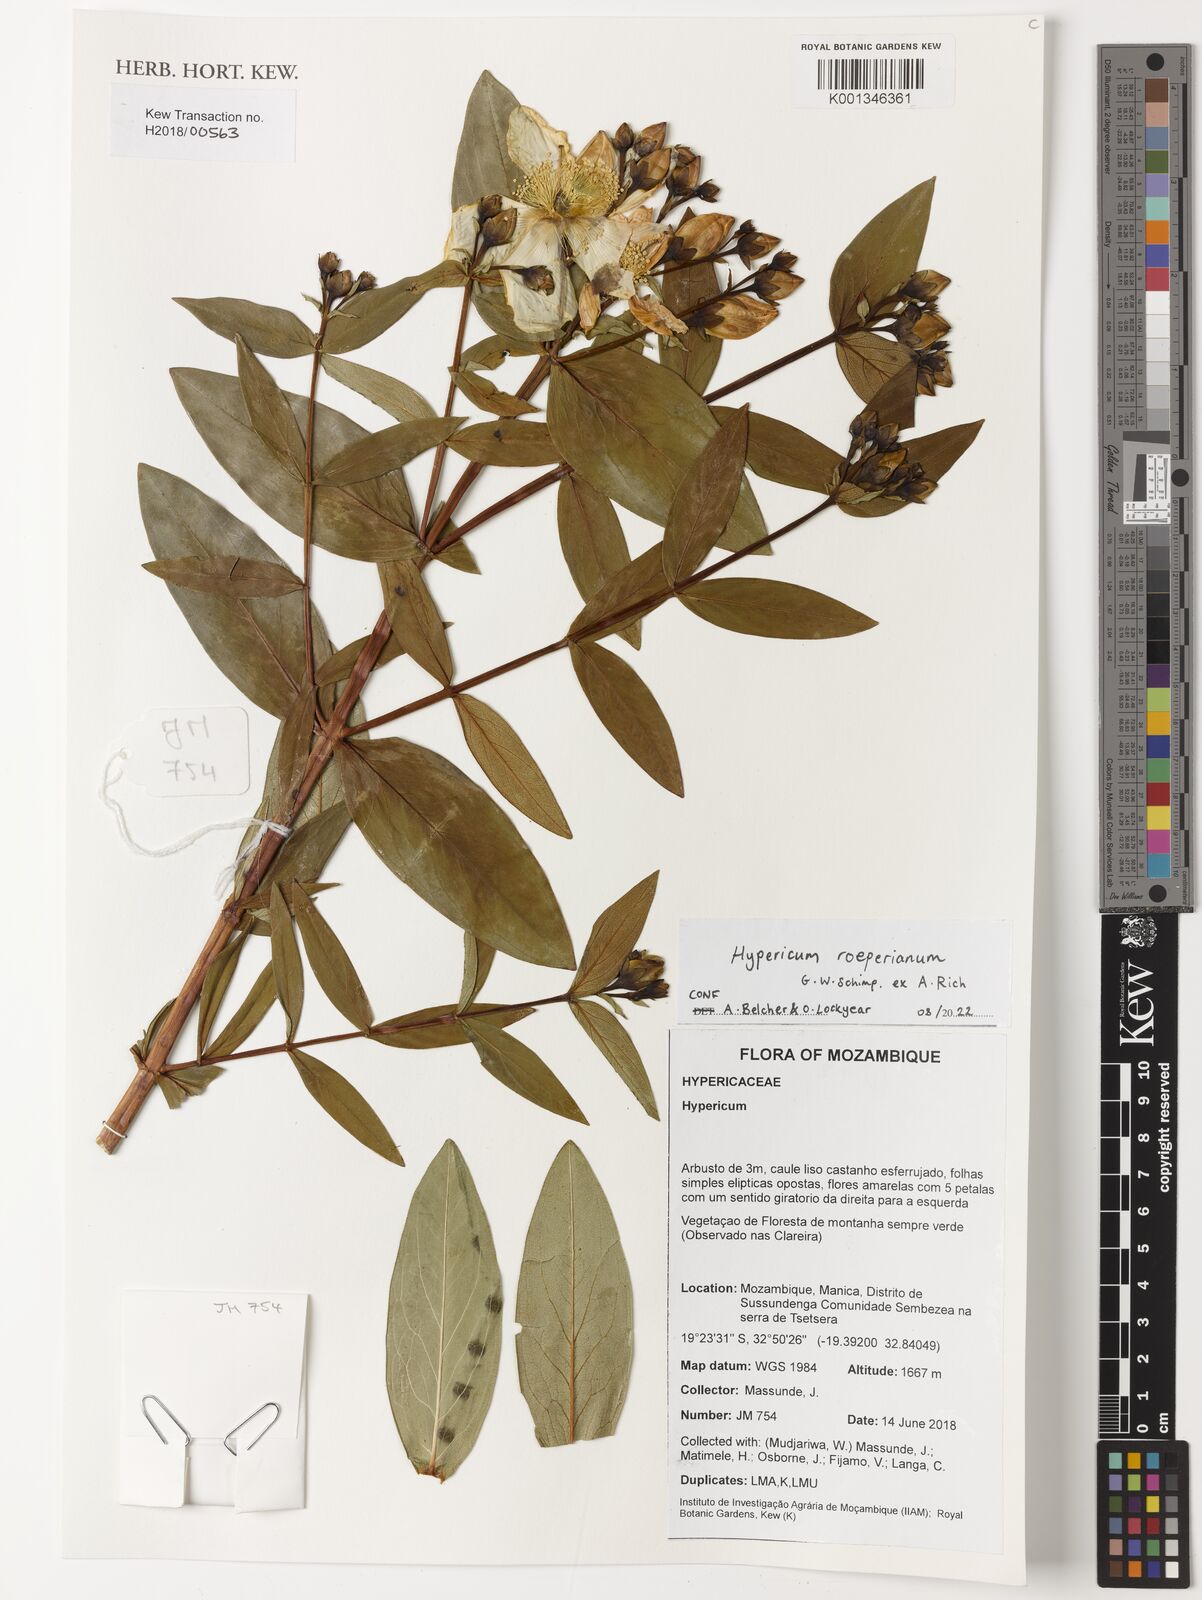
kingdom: Plantae
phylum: Tracheophyta
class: Magnoliopsida
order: Malpighiales
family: Hypericaceae
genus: Hypericum
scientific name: Hypericum roeperianum
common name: Large-leaved curry-bush
